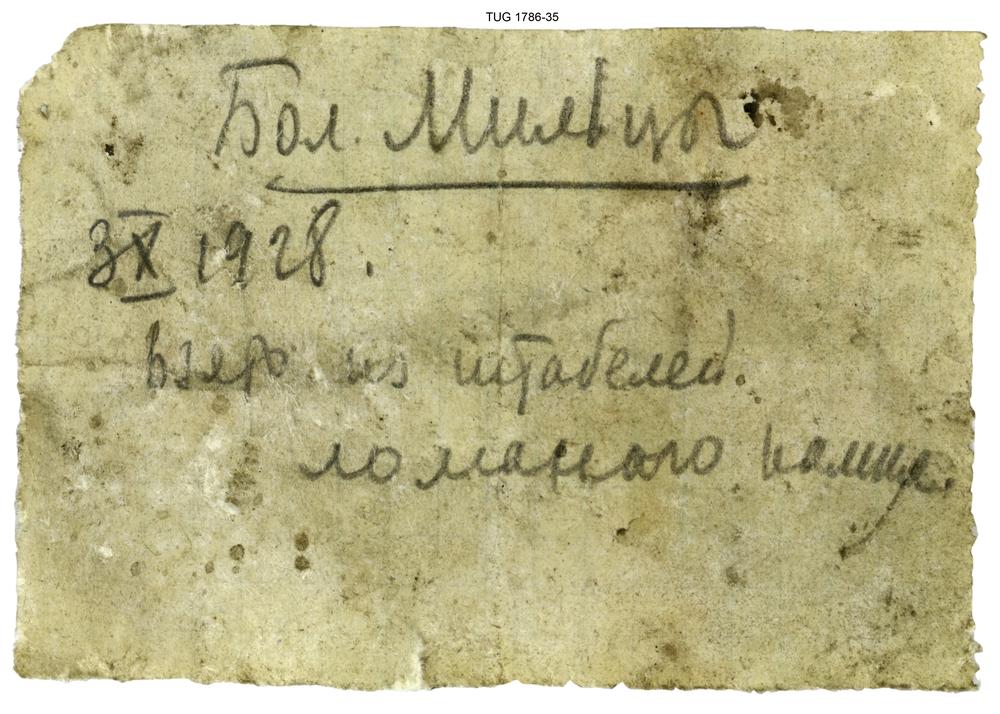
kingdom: Plantae
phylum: Chlorophyta
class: Chlorophyceae
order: Receptaculitales
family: Receptaculitaceae
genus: Receptaculites
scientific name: Receptaculites
